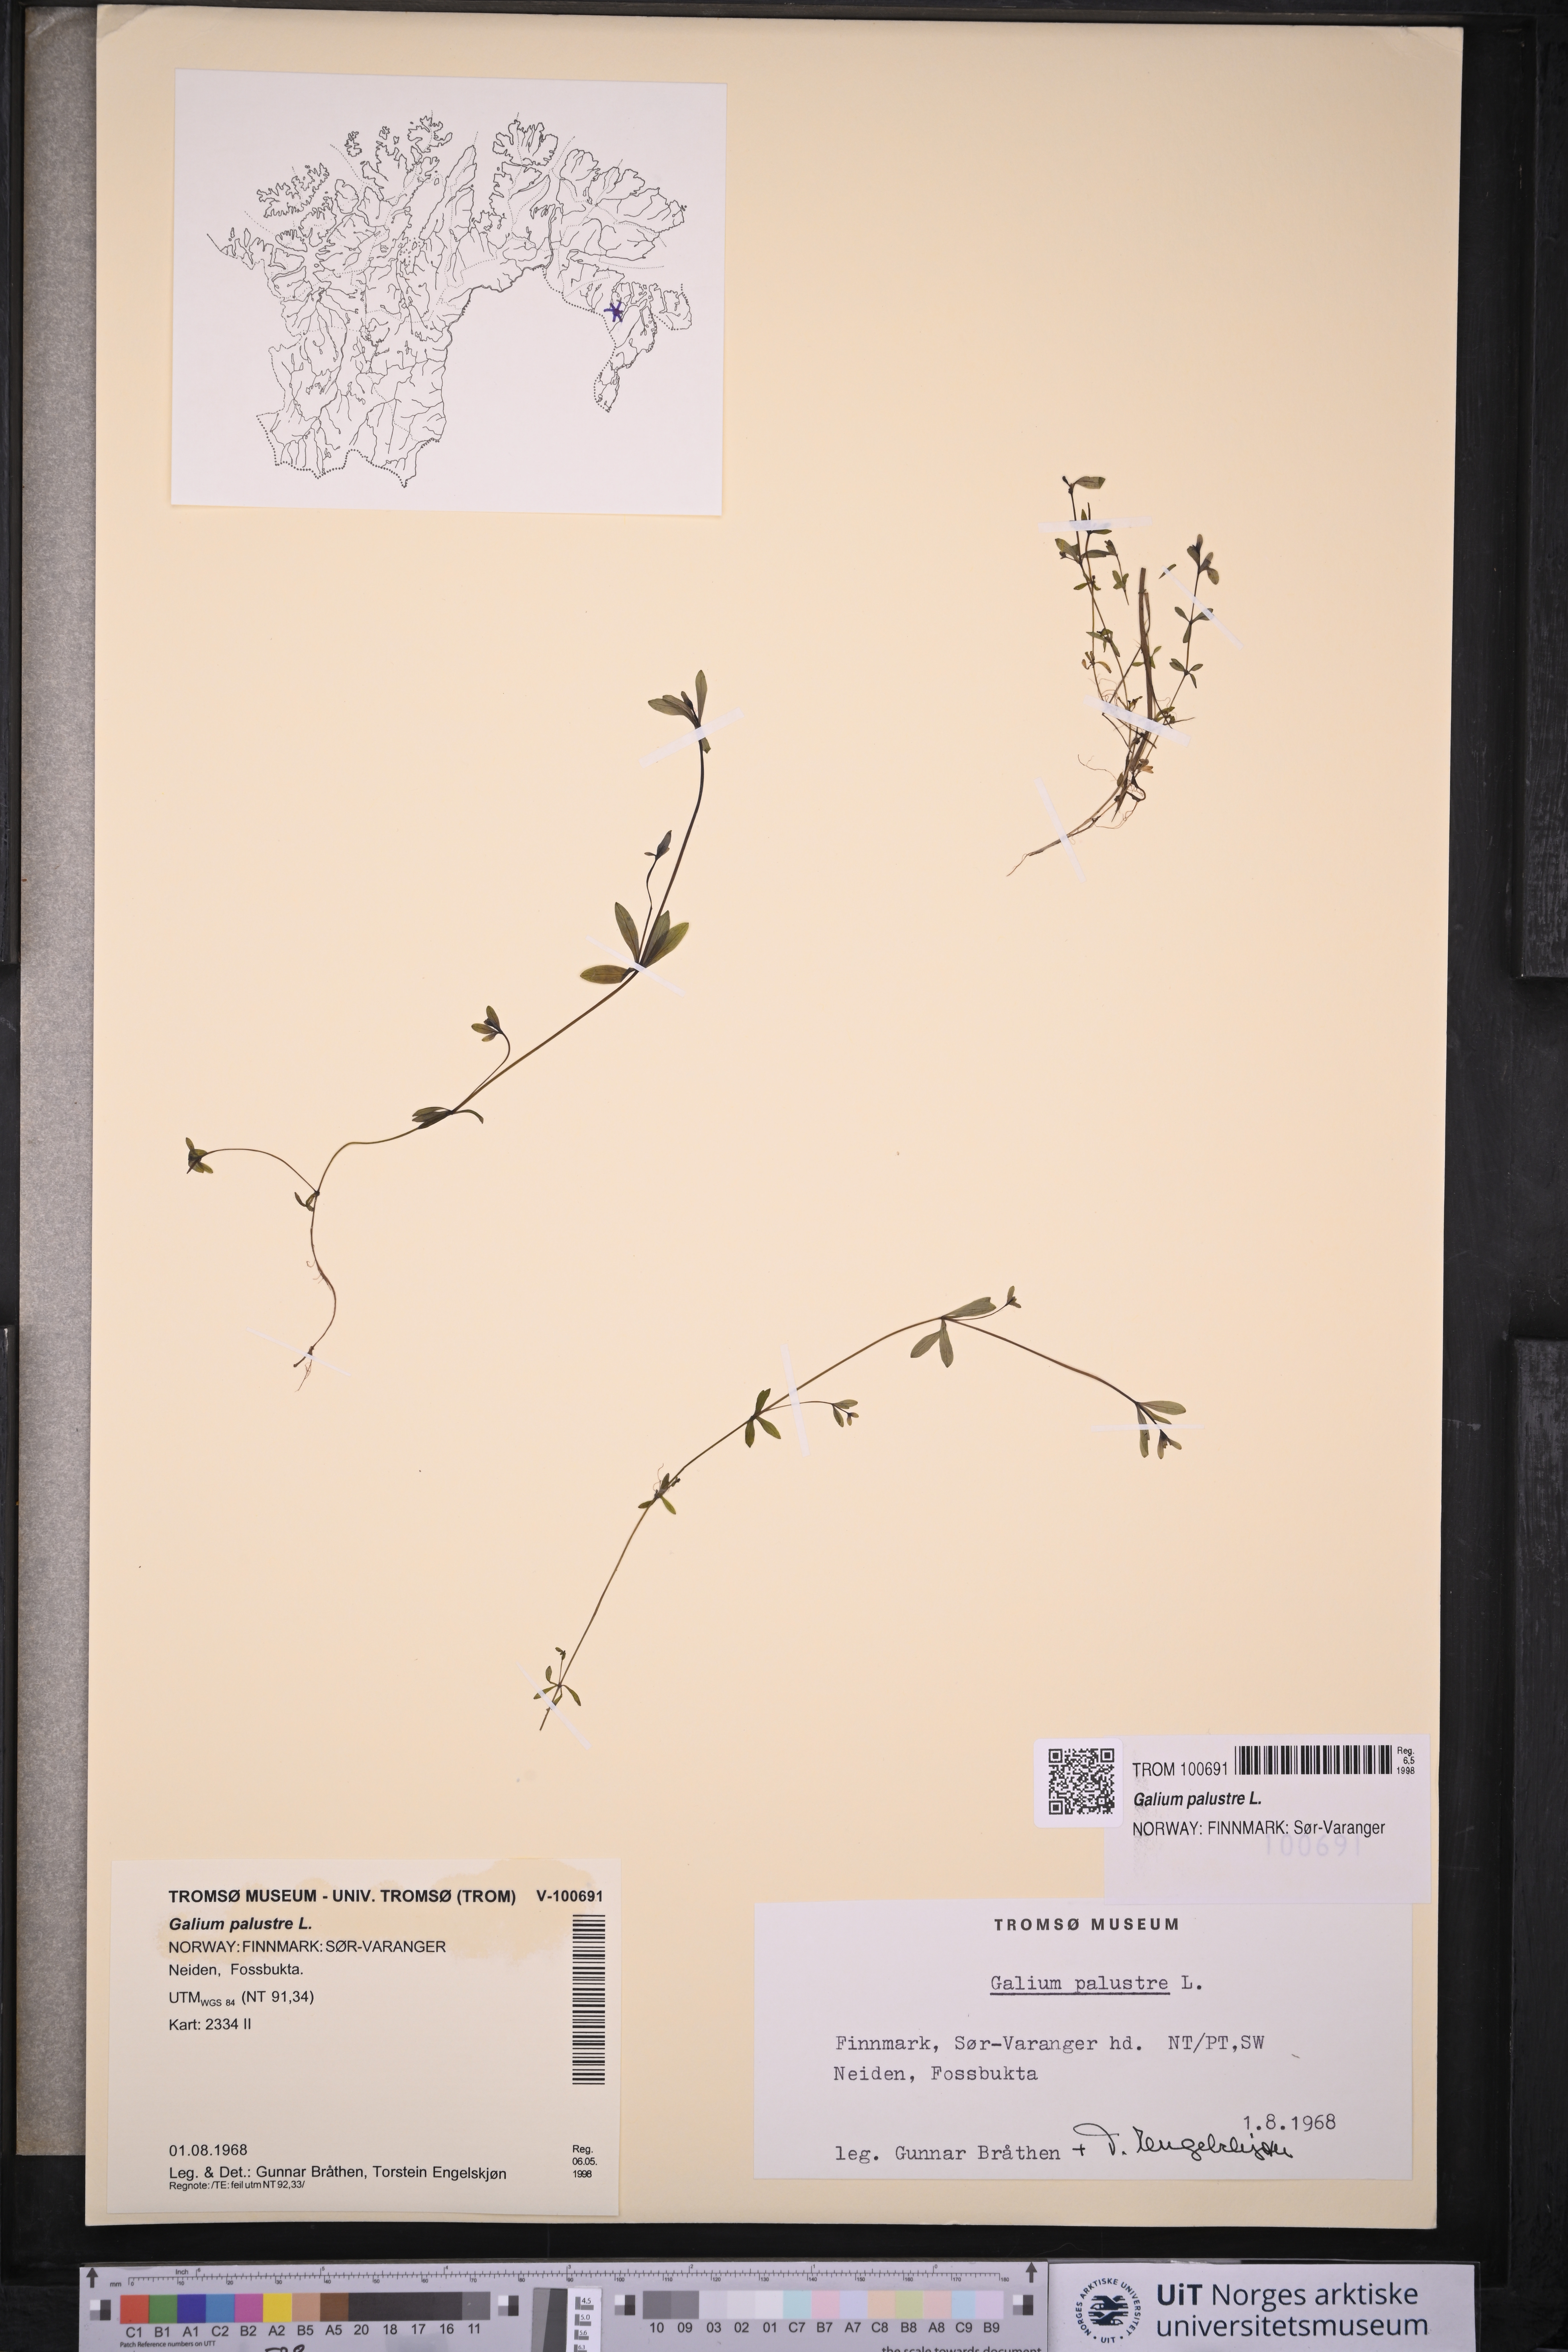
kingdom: Plantae
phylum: Tracheophyta
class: Magnoliopsida
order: Gentianales
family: Rubiaceae
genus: Galium
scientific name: Galium palustre
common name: Common marsh-bedstraw
